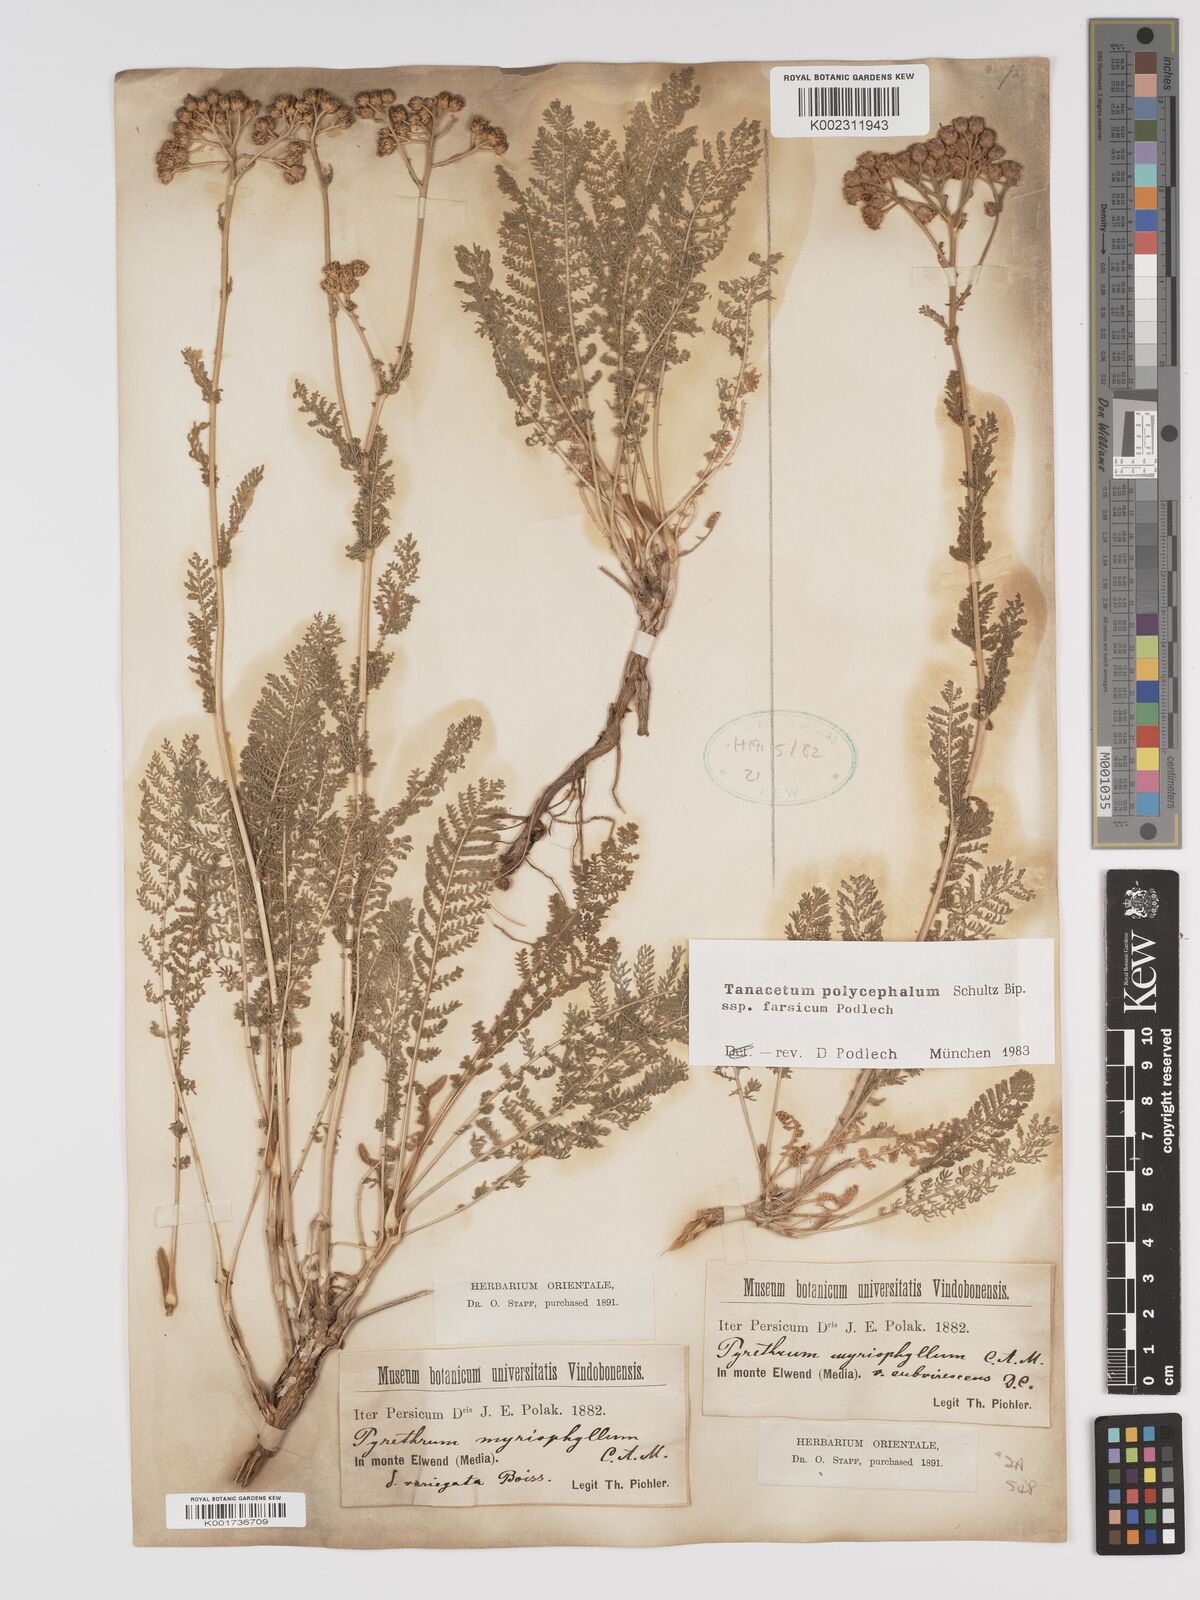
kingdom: Plantae
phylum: Tracheophyta
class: Magnoliopsida
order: Asterales
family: Asteraceae
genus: Tanacetum
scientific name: Tanacetum polycephalum
